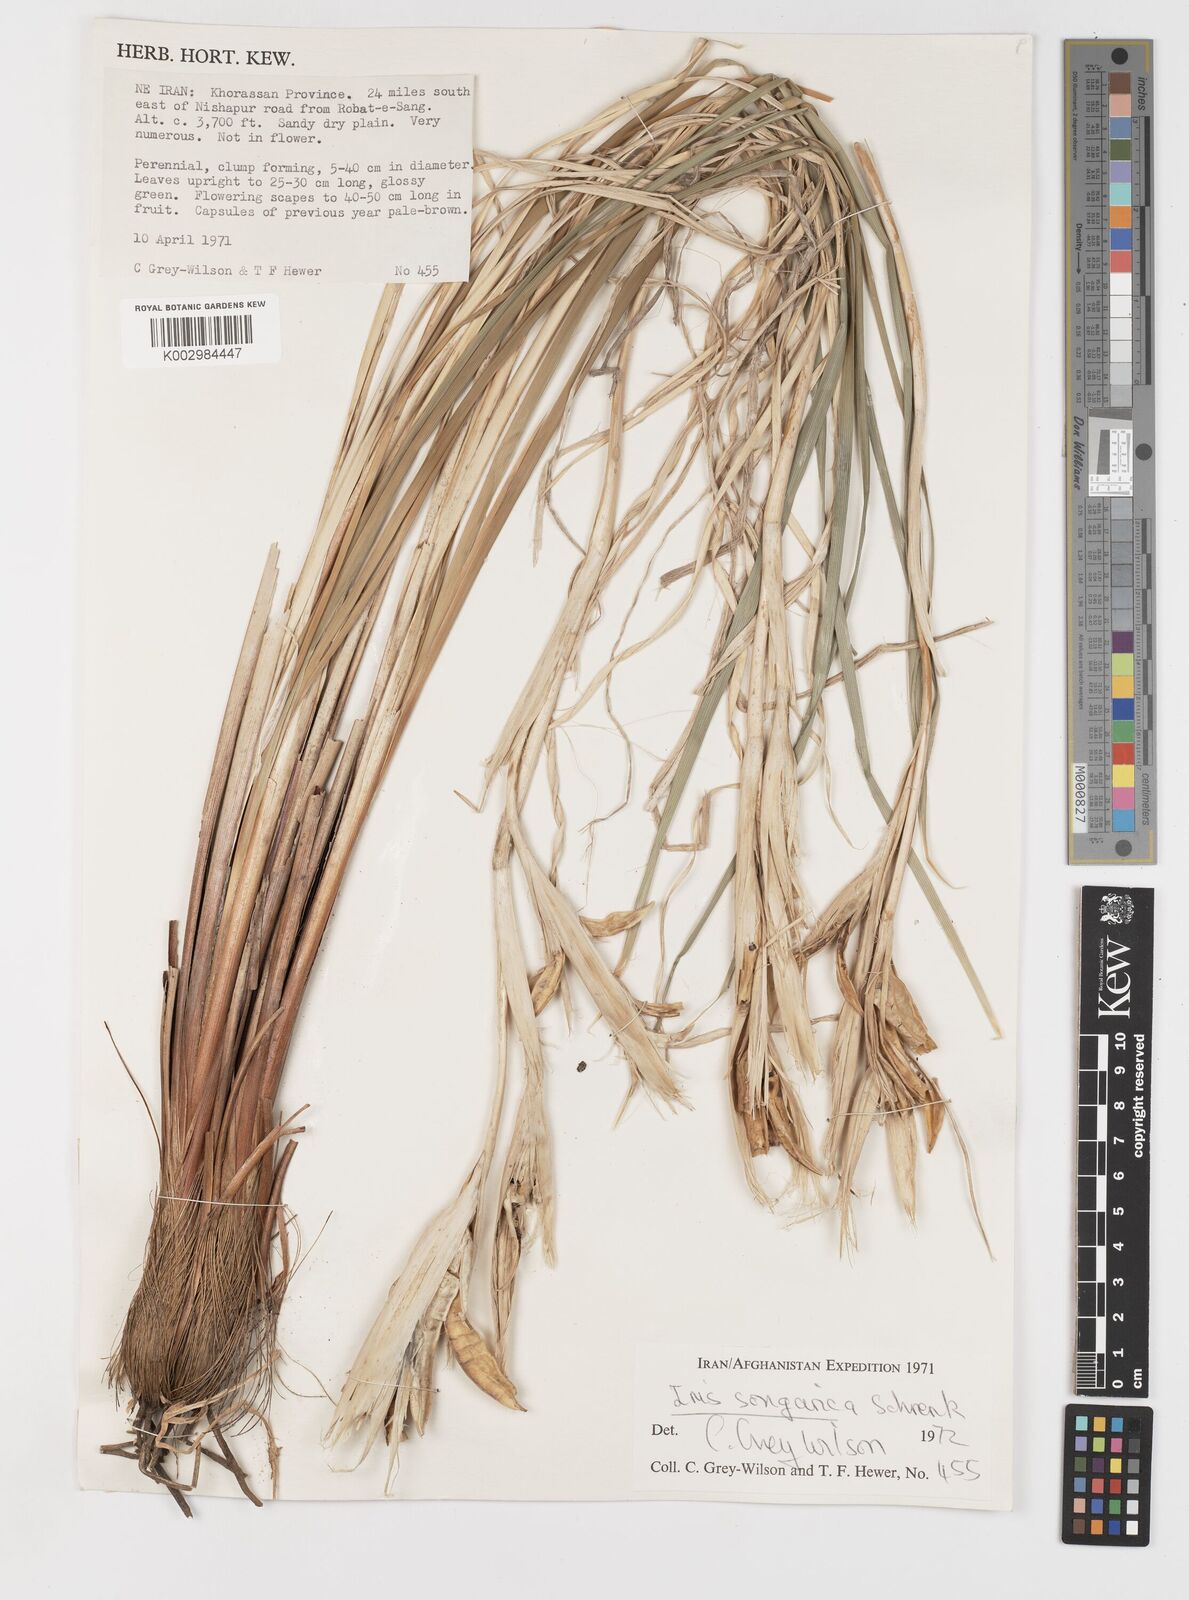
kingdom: Plantae
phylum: Tracheophyta
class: Liliopsida
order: Asparagales
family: Iridaceae
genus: Iris
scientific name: Iris songarica
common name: Songar iris
